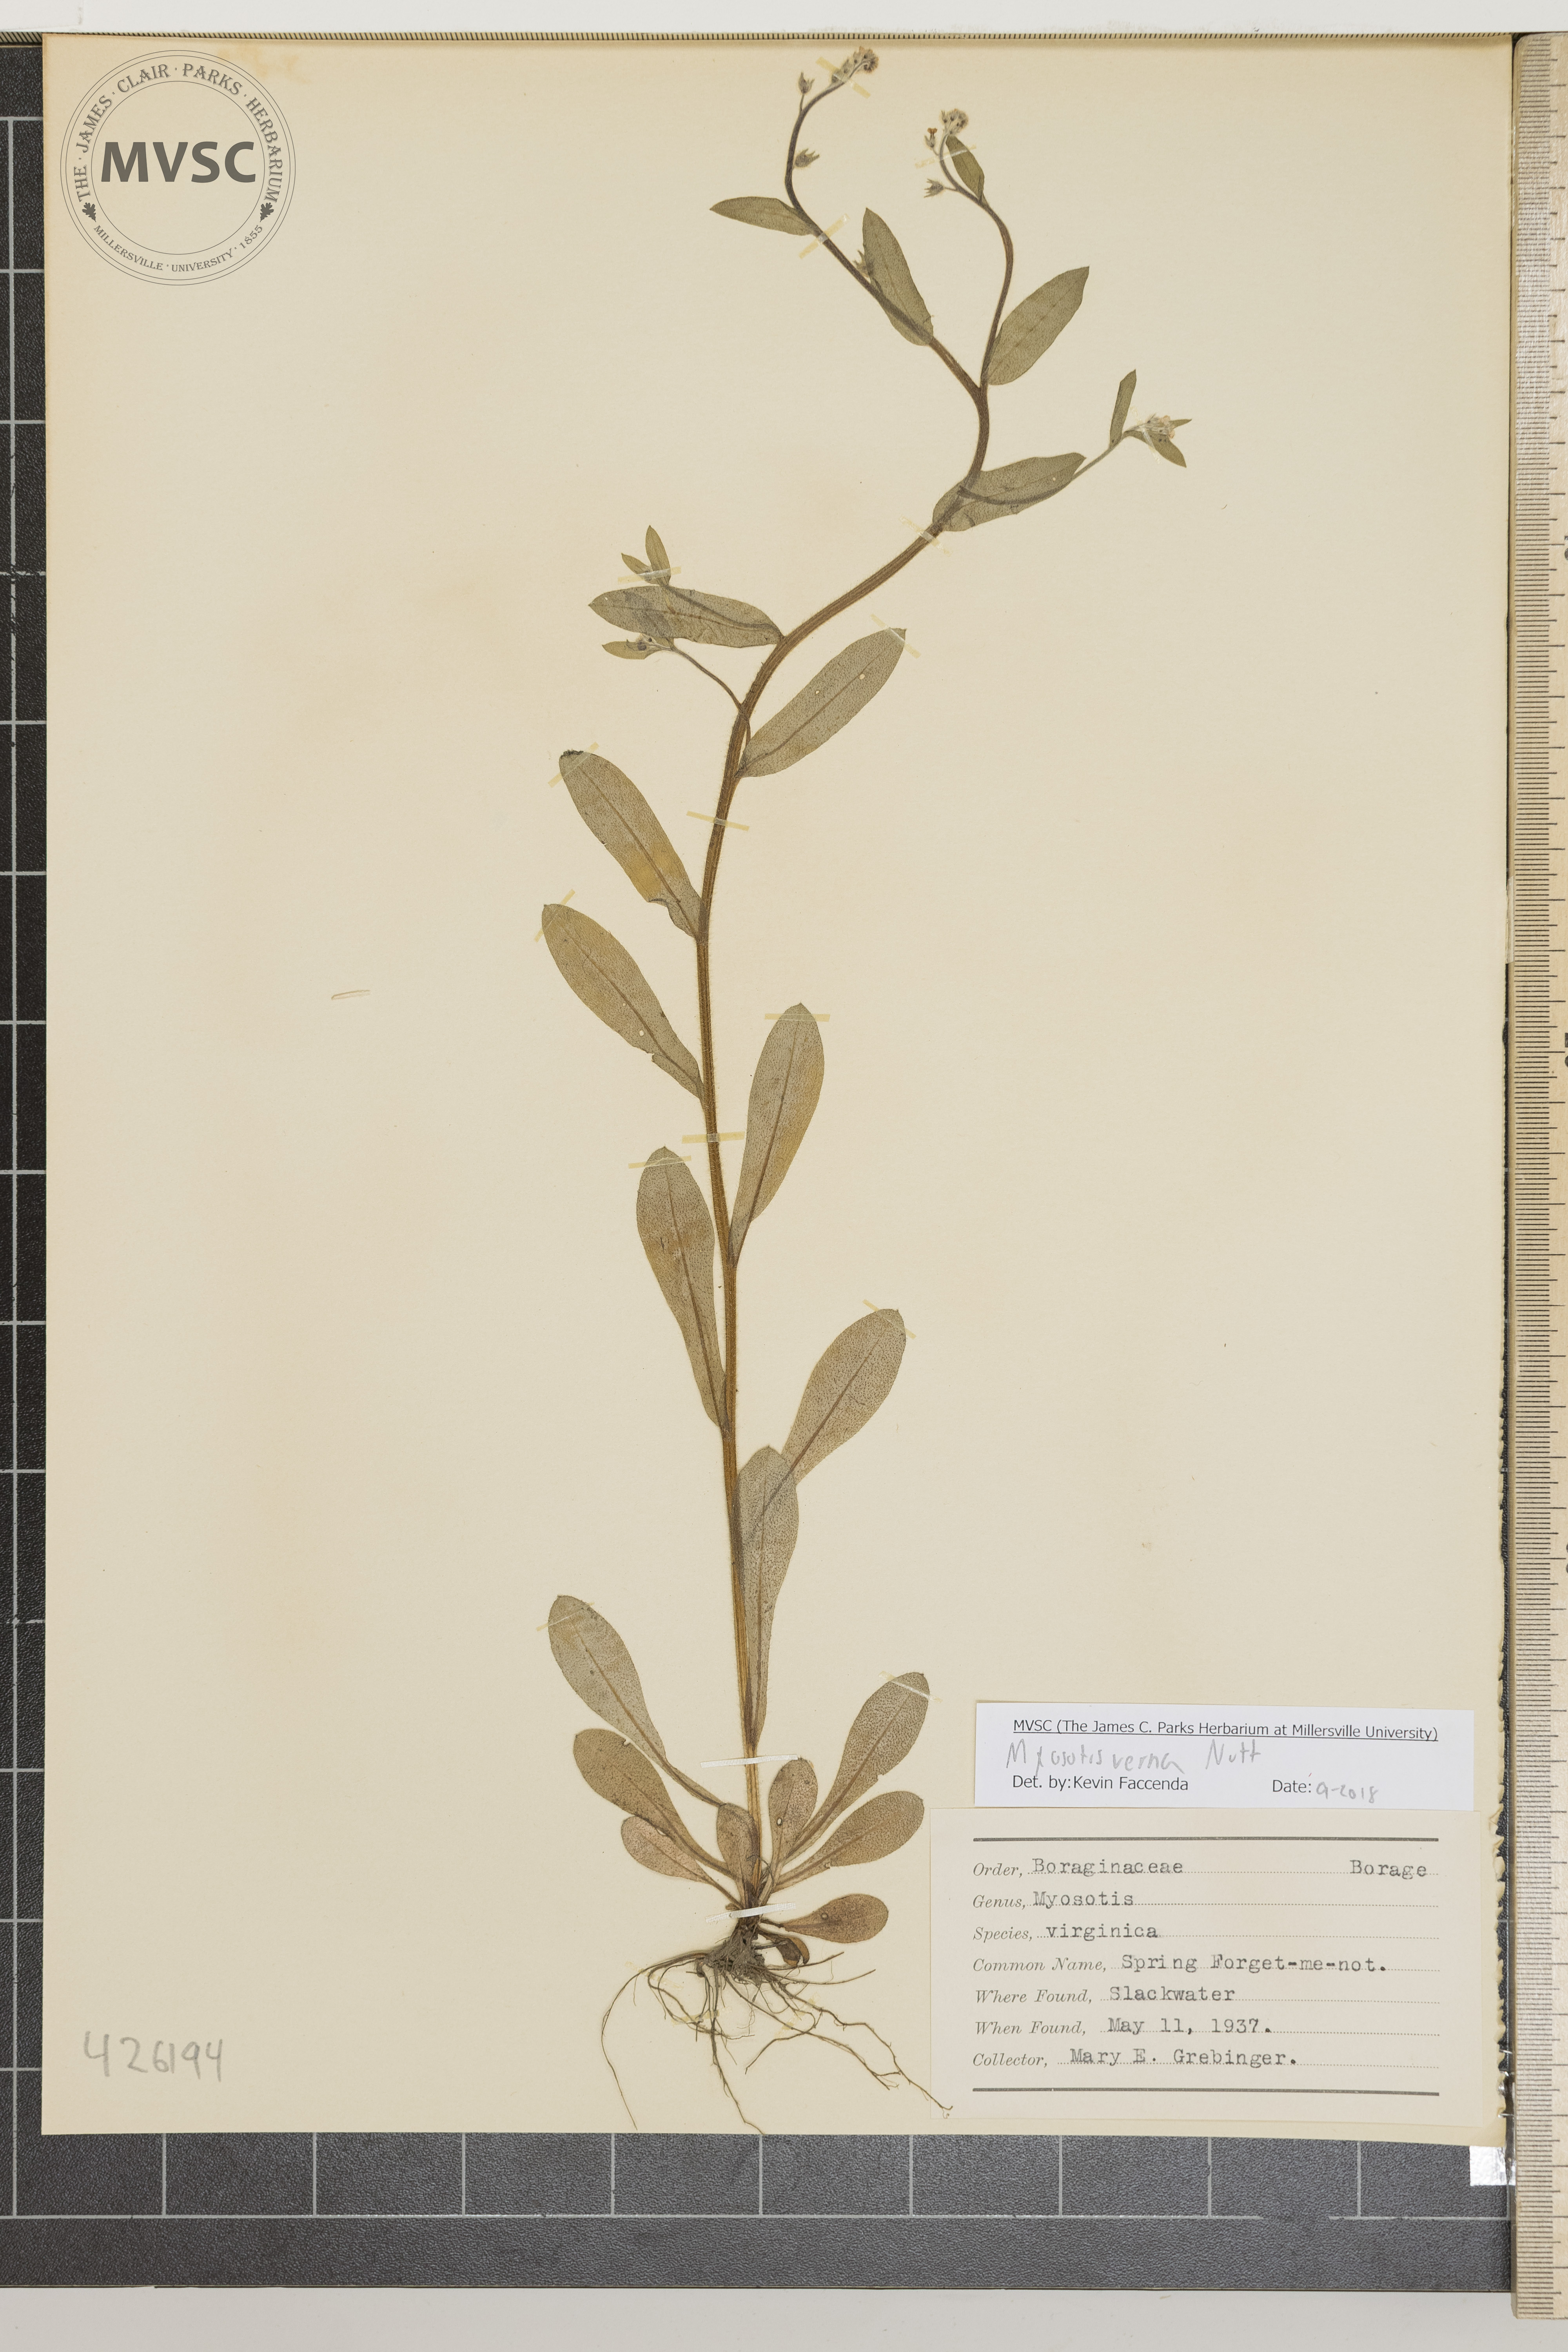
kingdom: Plantae
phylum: Tracheophyta
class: Magnoliopsida
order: Boraginales
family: Boraginaceae
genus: Myosotis
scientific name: Myosotis verna
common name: Spring Forget-me-not
